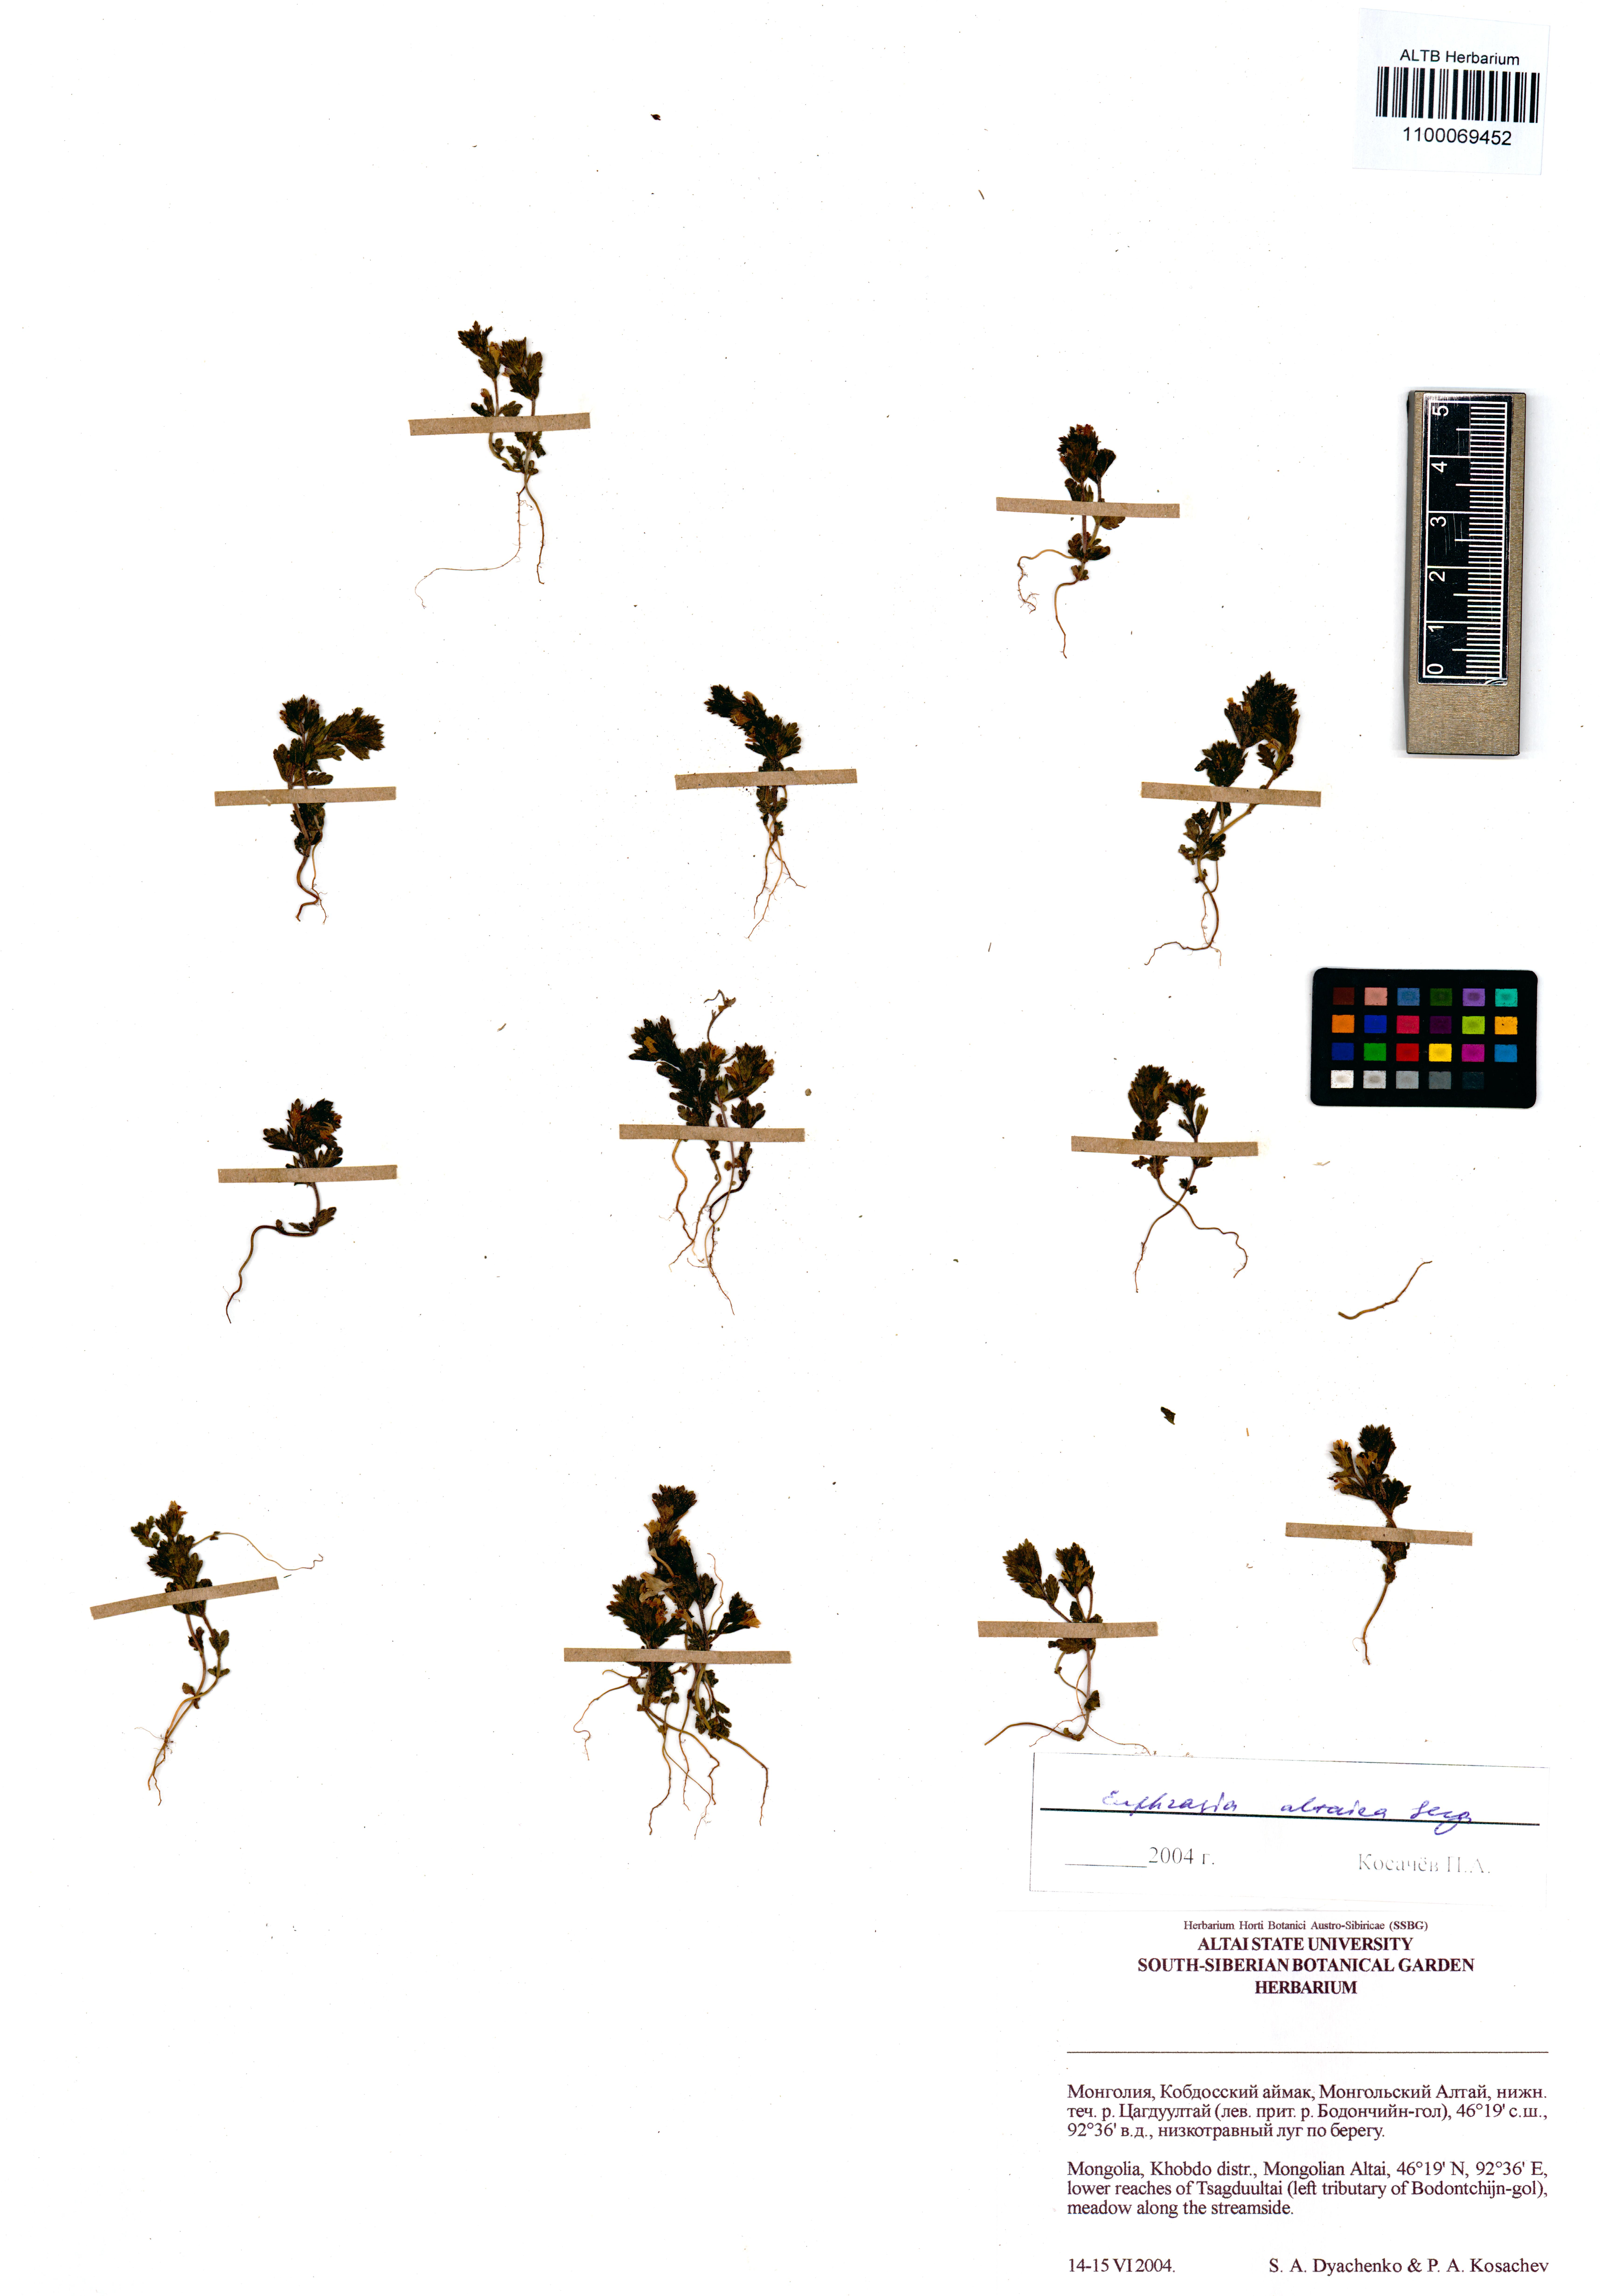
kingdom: Plantae
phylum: Tracheophyta
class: Magnoliopsida
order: Lamiales
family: Orobanchaceae
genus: Euphrasia
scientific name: Euphrasia altaica
